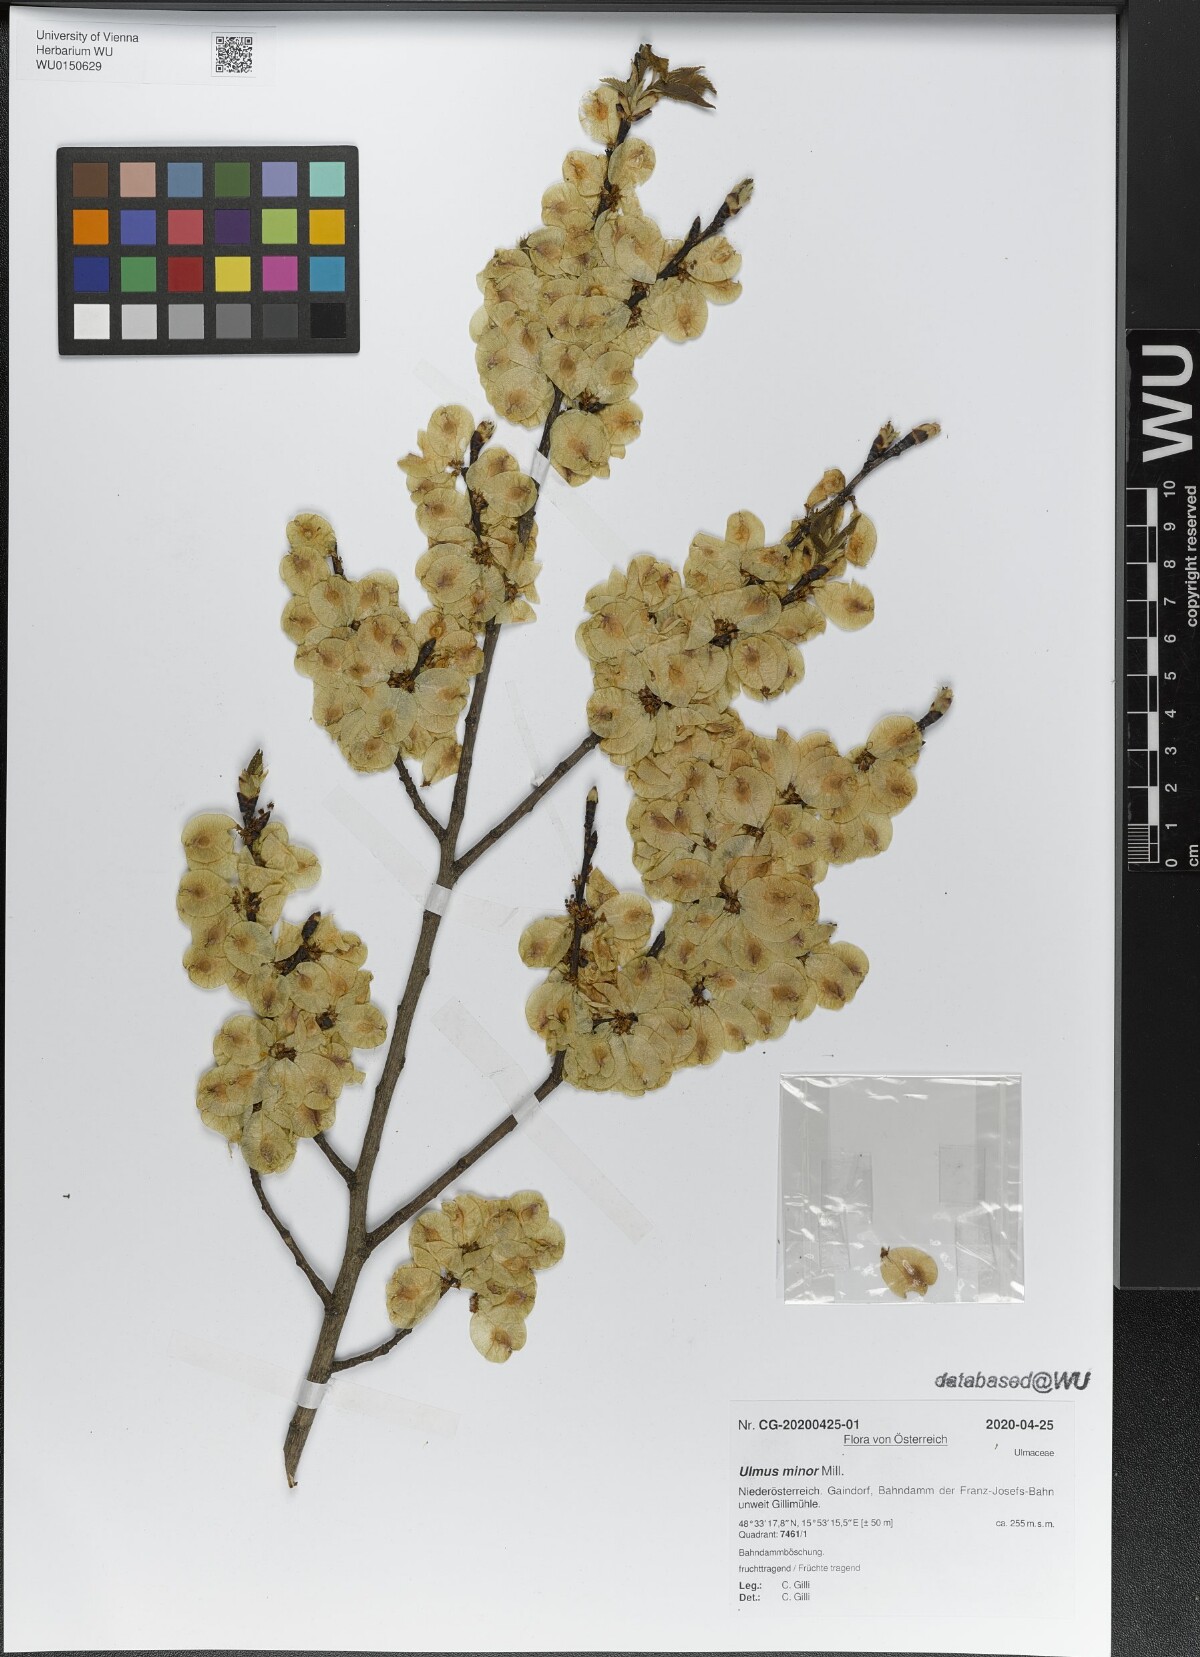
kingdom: Plantae
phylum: Tracheophyta
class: Magnoliopsida
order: Rosales
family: Ulmaceae
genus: Ulmus
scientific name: Ulmus minor
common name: Small-leaved elm
